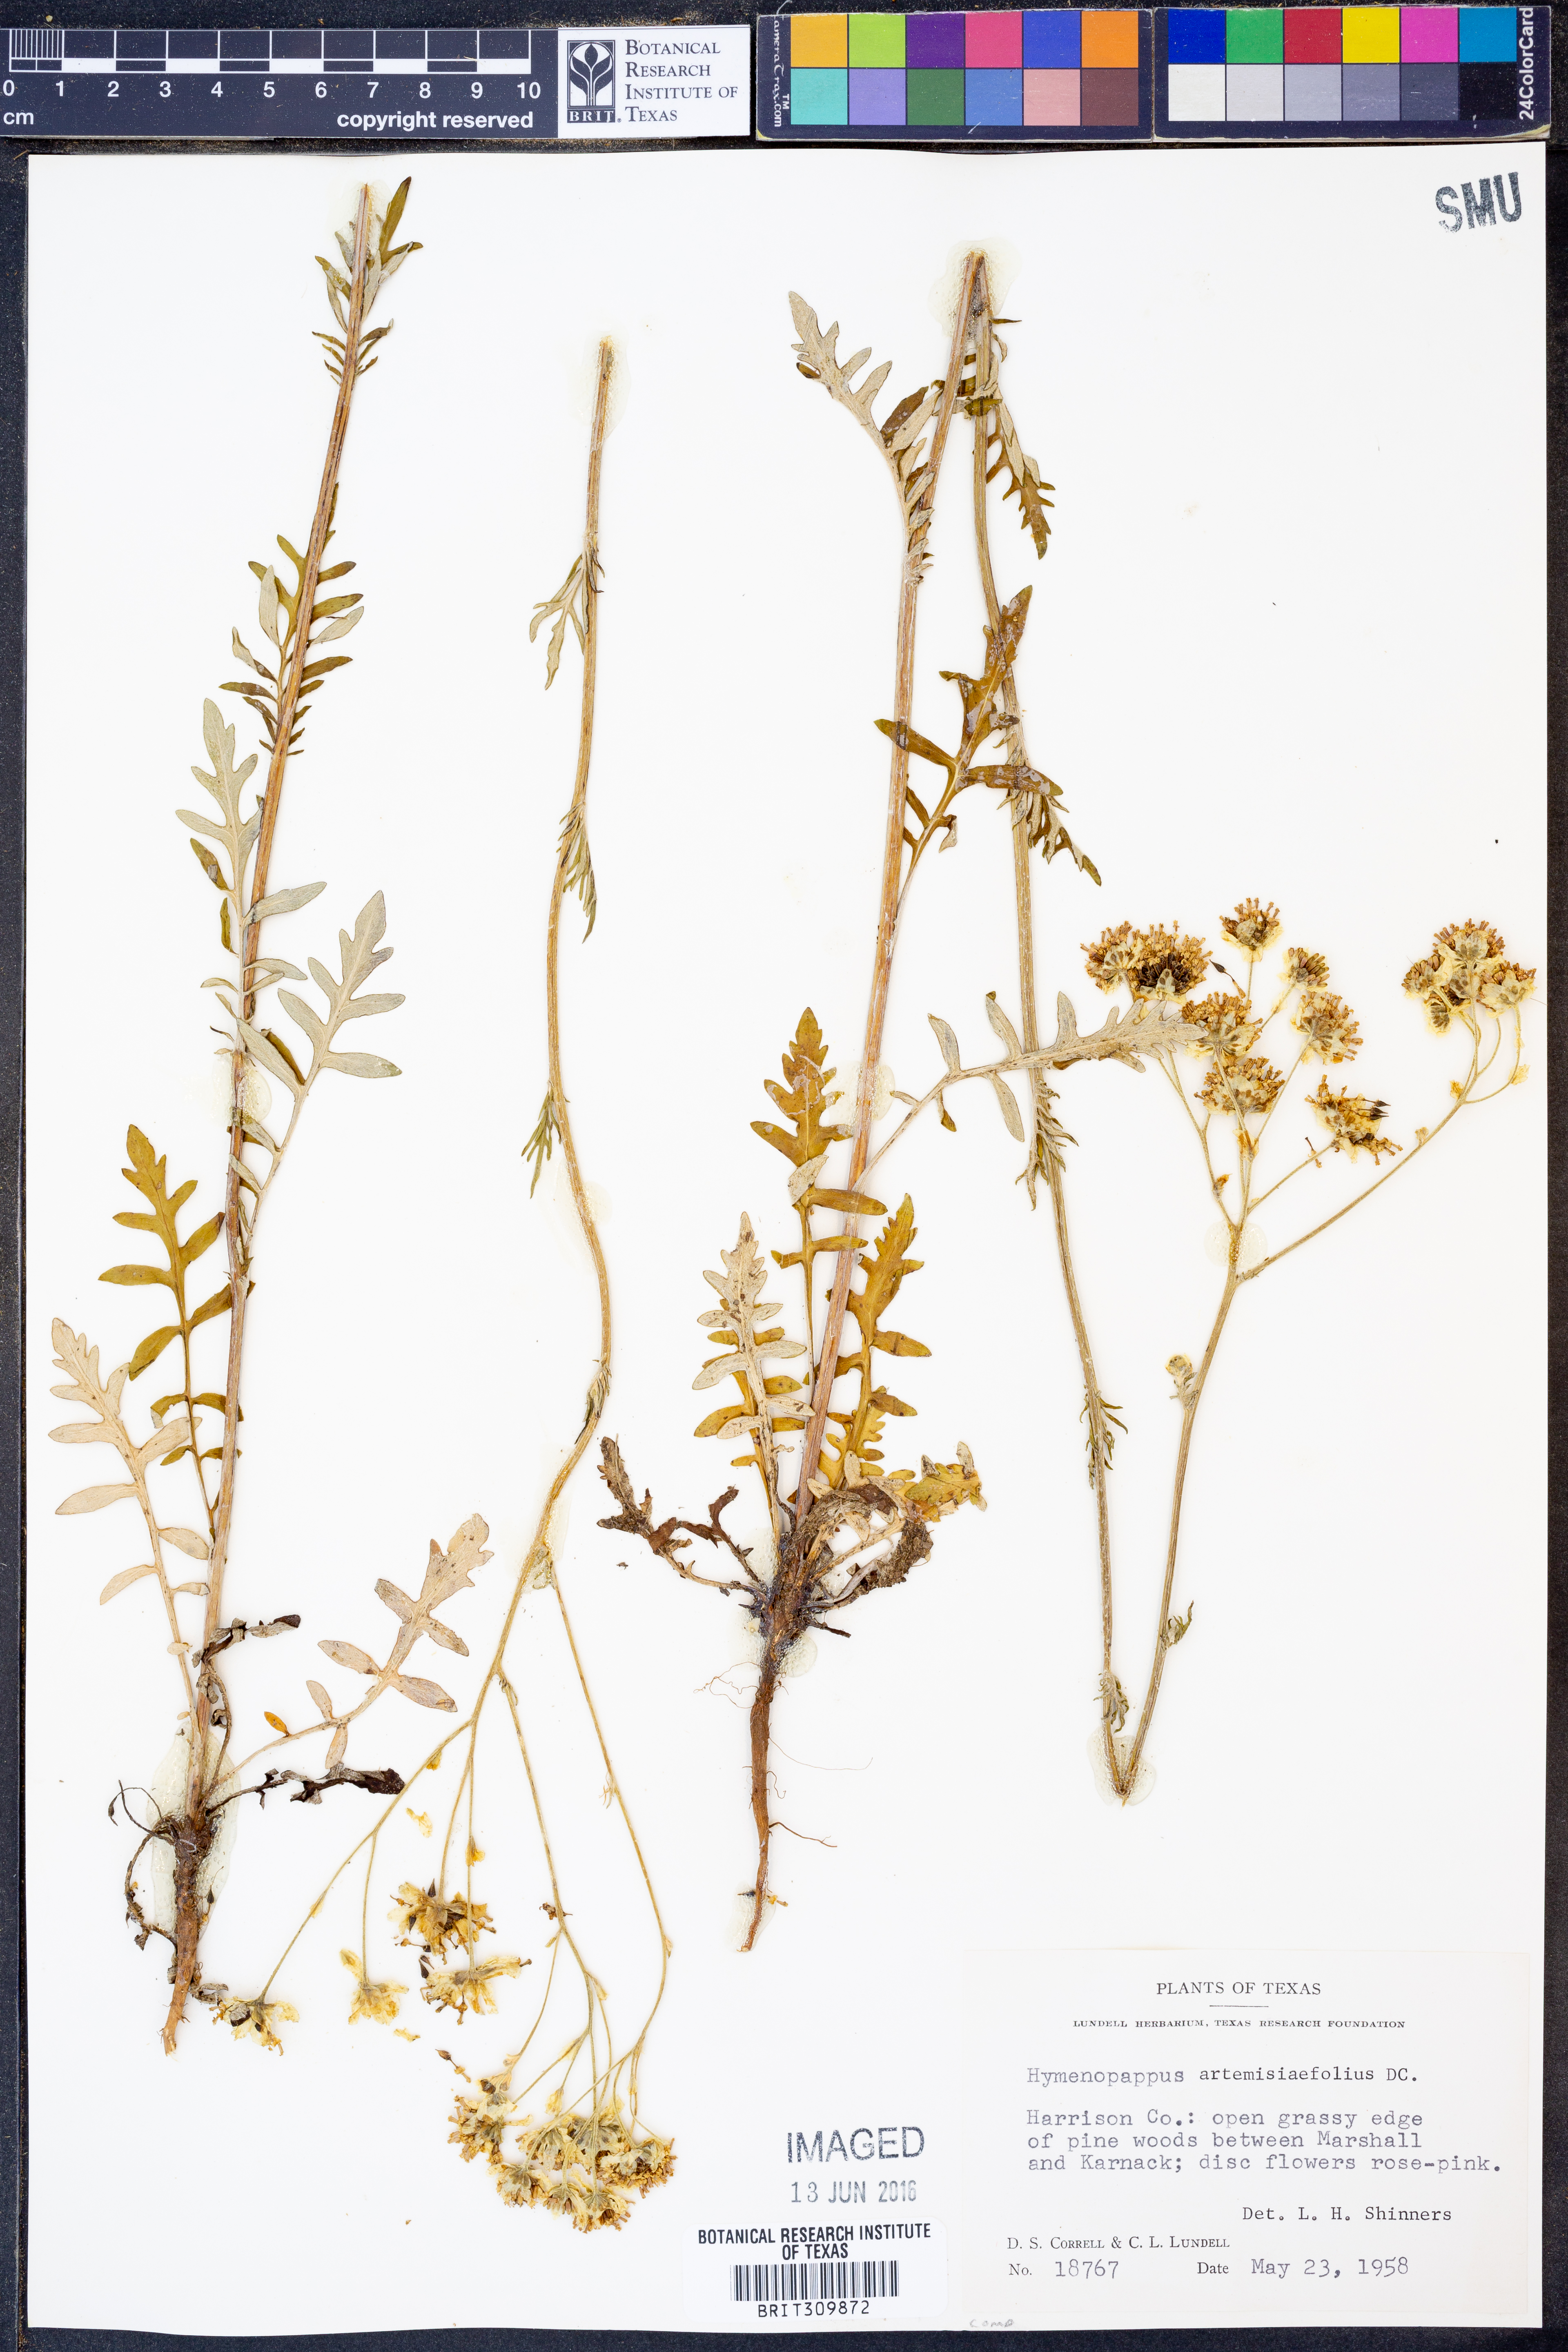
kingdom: Plantae
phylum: Tracheophyta
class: Magnoliopsida
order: Asterales
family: Asteraceae
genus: Hymenopappus
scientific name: Hymenopappus artemisiifolius
